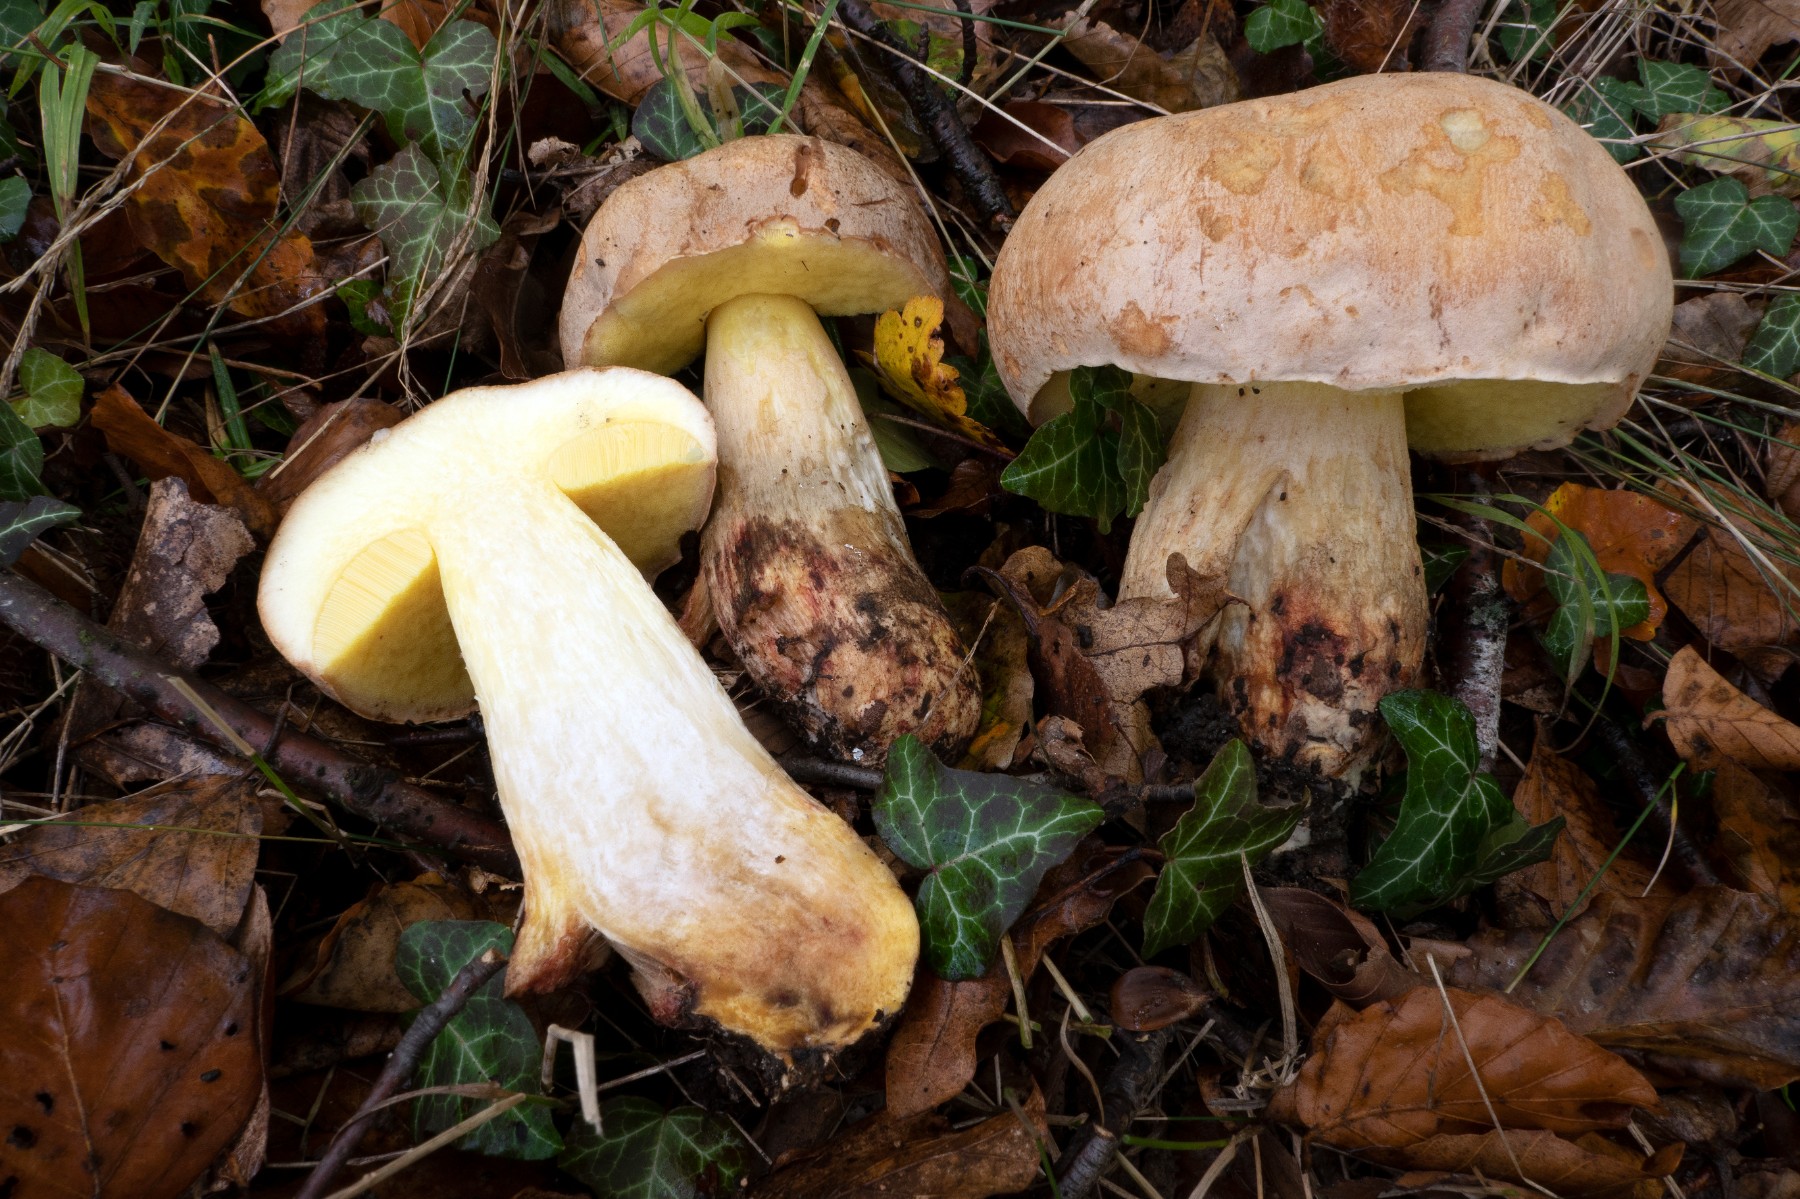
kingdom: Fungi
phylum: Basidiomycota
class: Agaricomycetes
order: Boletales
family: Boletaceae
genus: Hemileccinum
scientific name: Hemileccinum impolitum
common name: bleg rørhat
